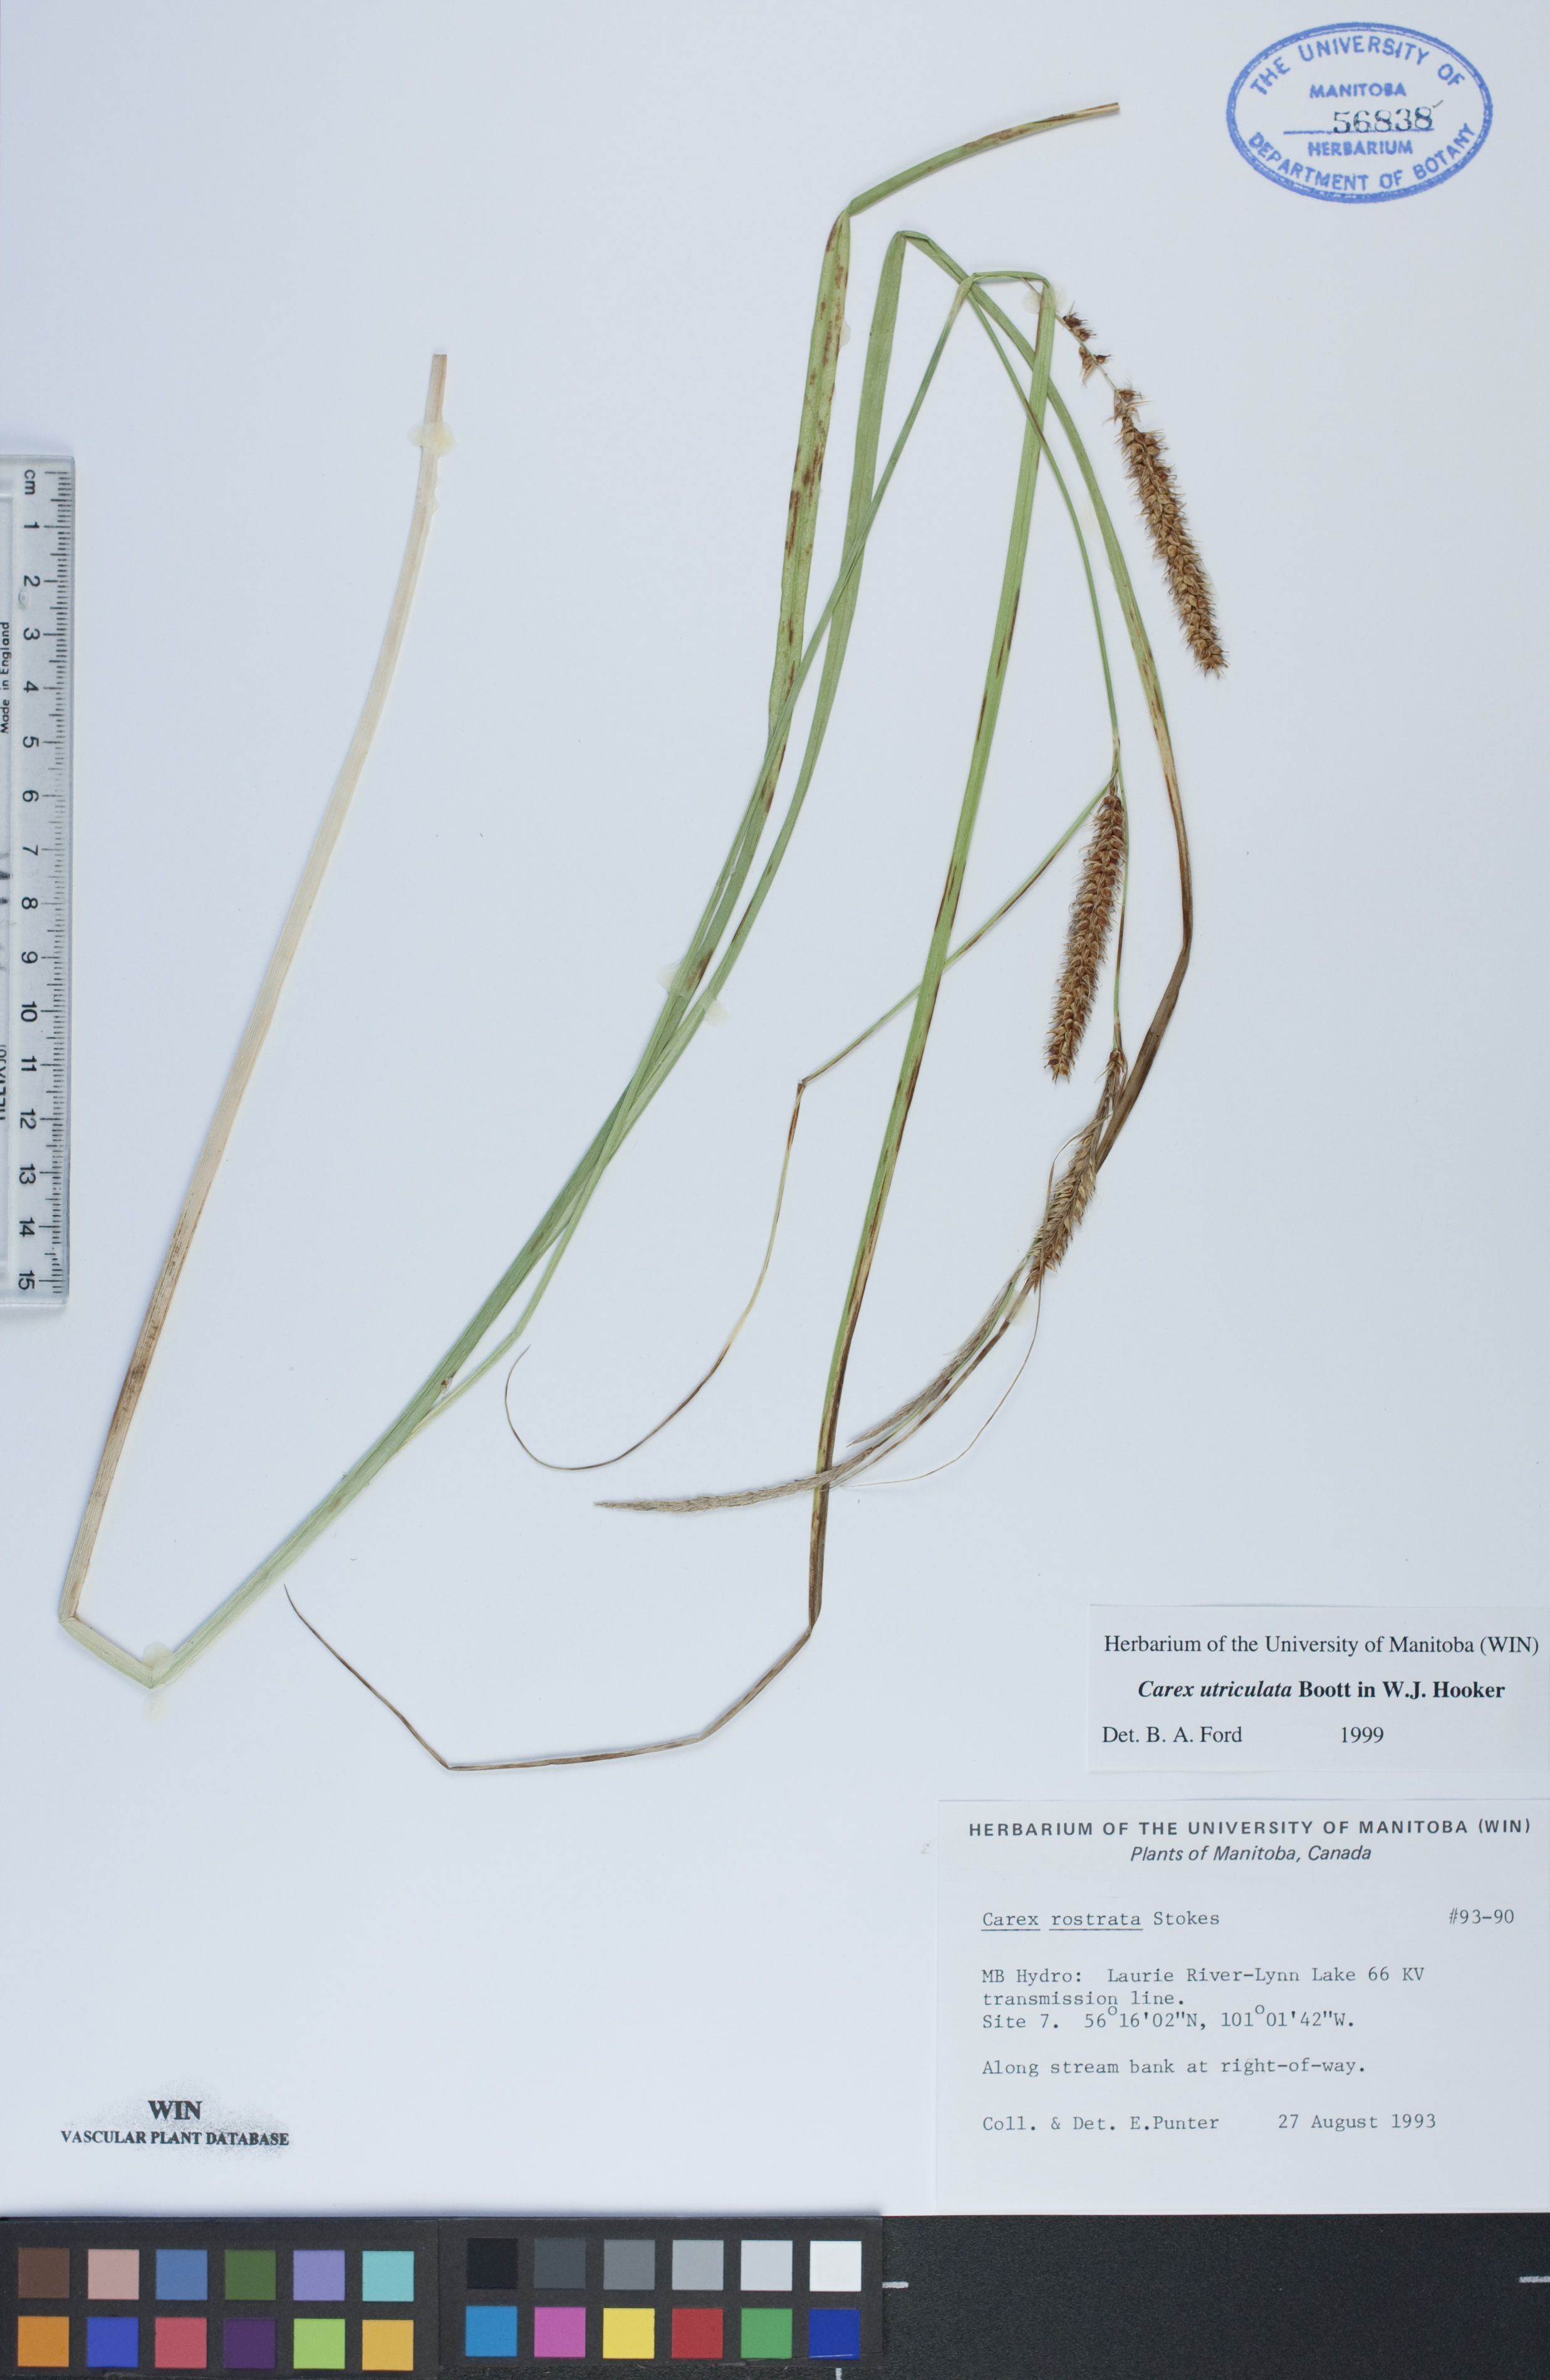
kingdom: Plantae
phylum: Tracheophyta
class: Liliopsida
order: Poales
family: Cyperaceae
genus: Carex
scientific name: Carex utriculata
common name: Beaked sedge
